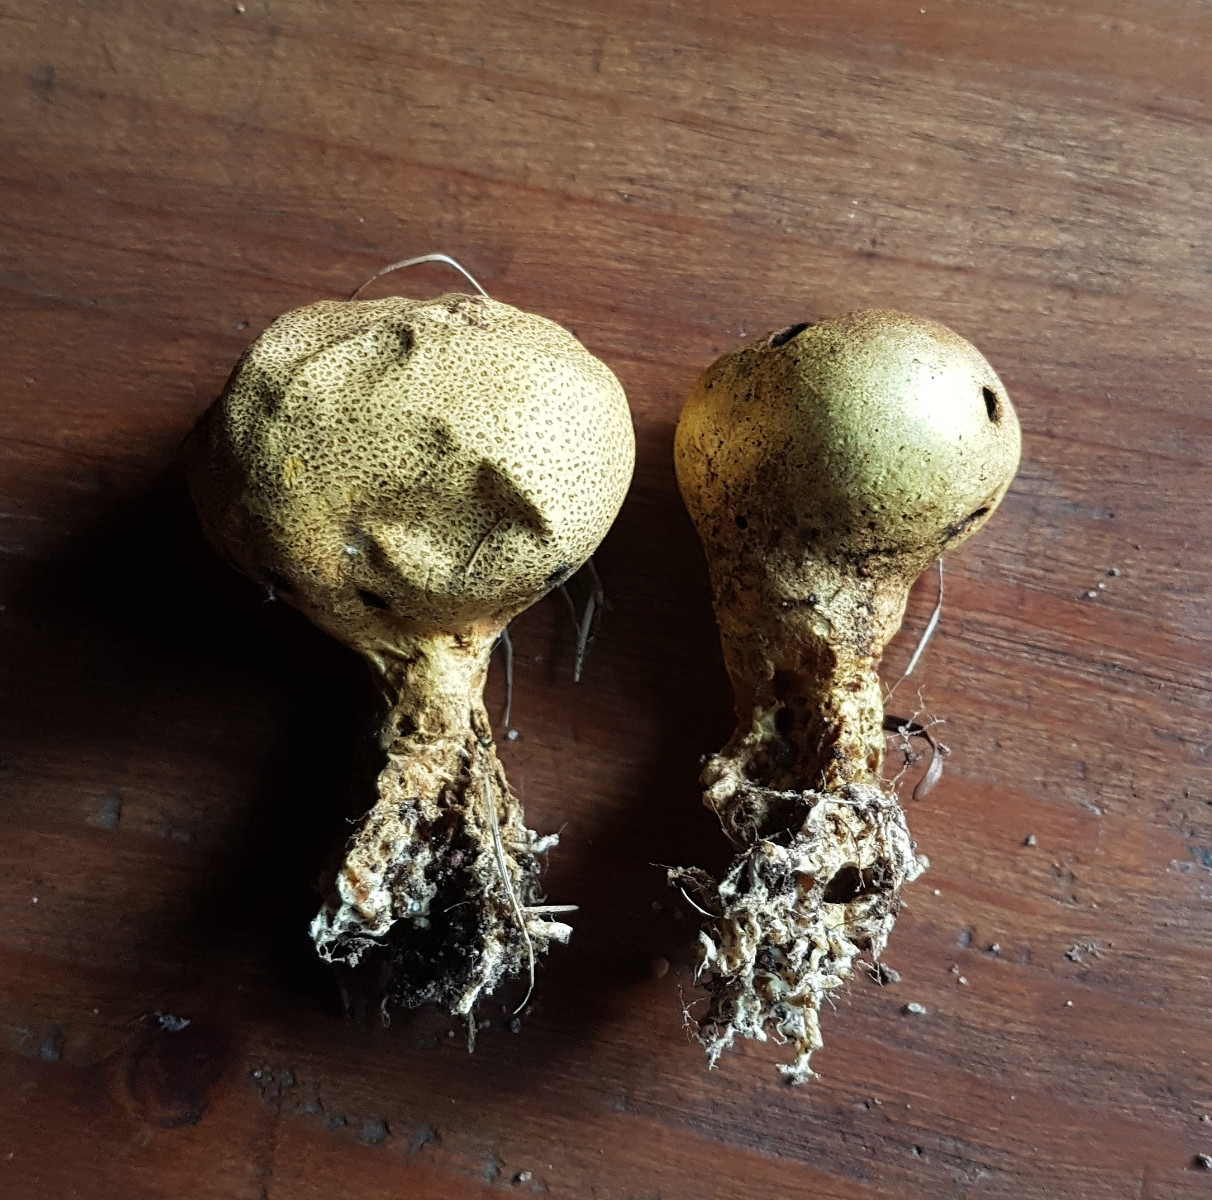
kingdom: Fungi
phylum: Basidiomycota
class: Agaricomycetes
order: Boletales
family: Sclerodermataceae
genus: Scleroderma
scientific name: Scleroderma
